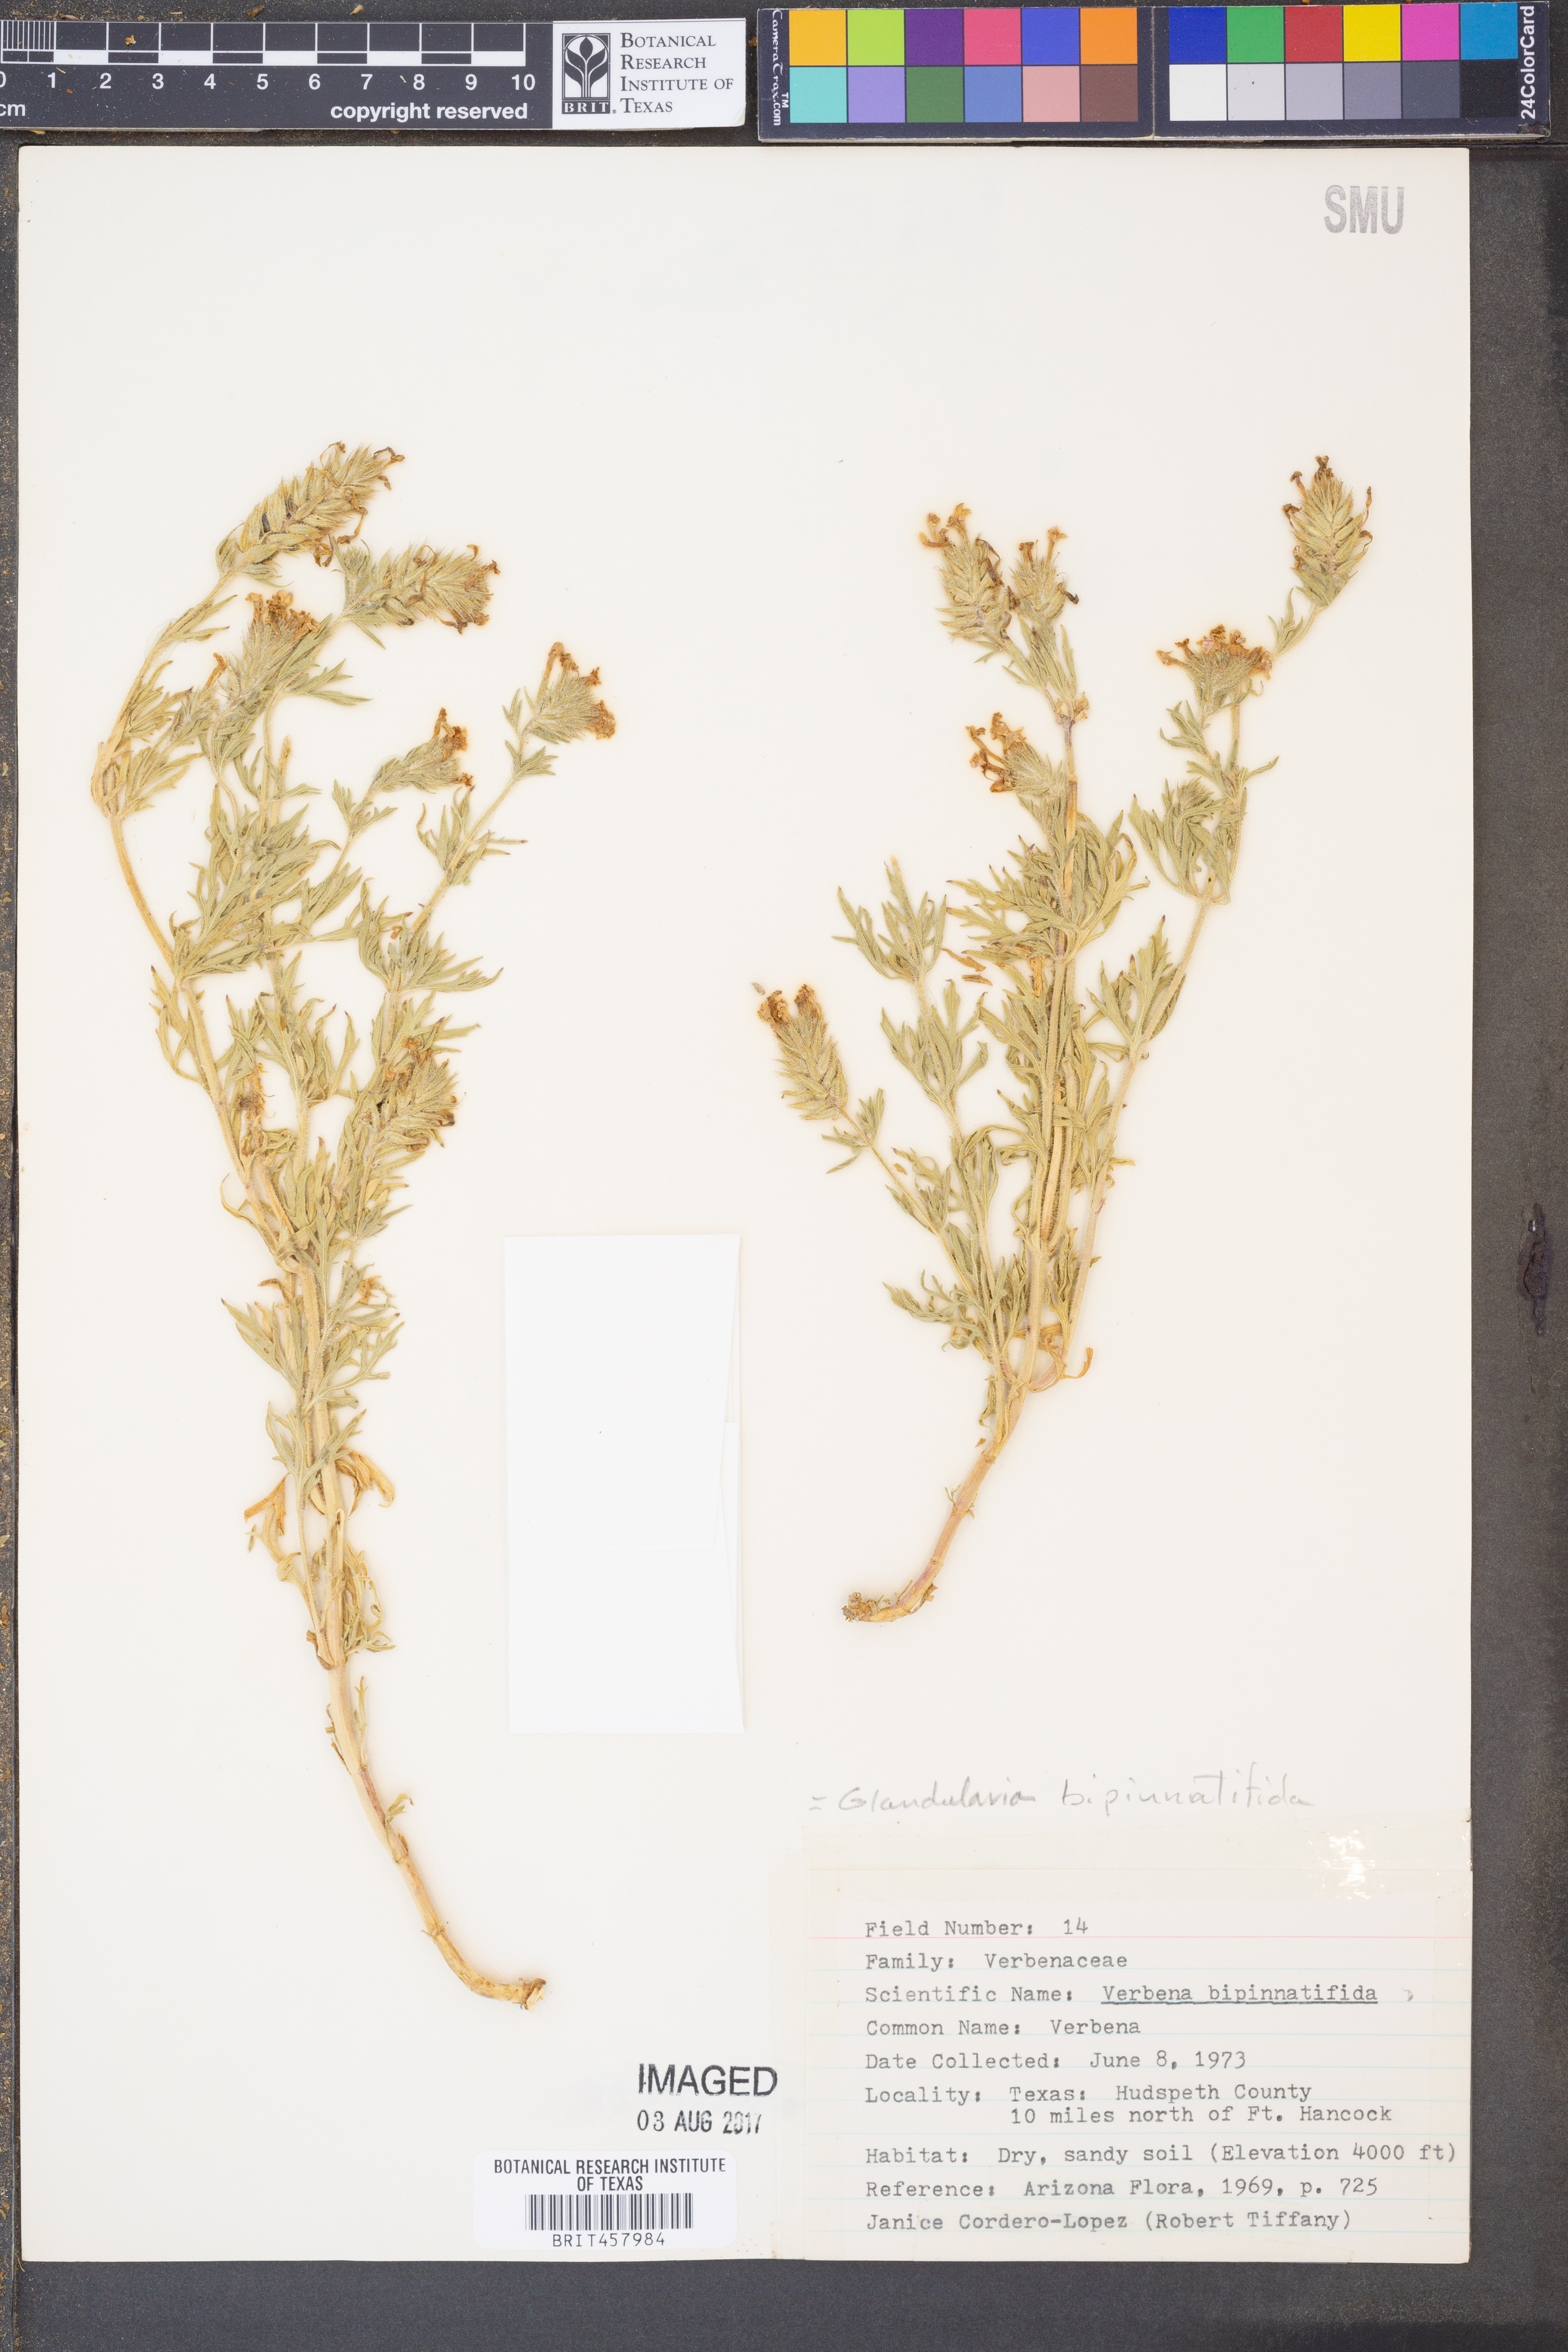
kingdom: Plantae
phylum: Tracheophyta
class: Magnoliopsida
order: Lamiales
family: Verbenaceae
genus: Verbena
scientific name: Verbena bipinnatifida
